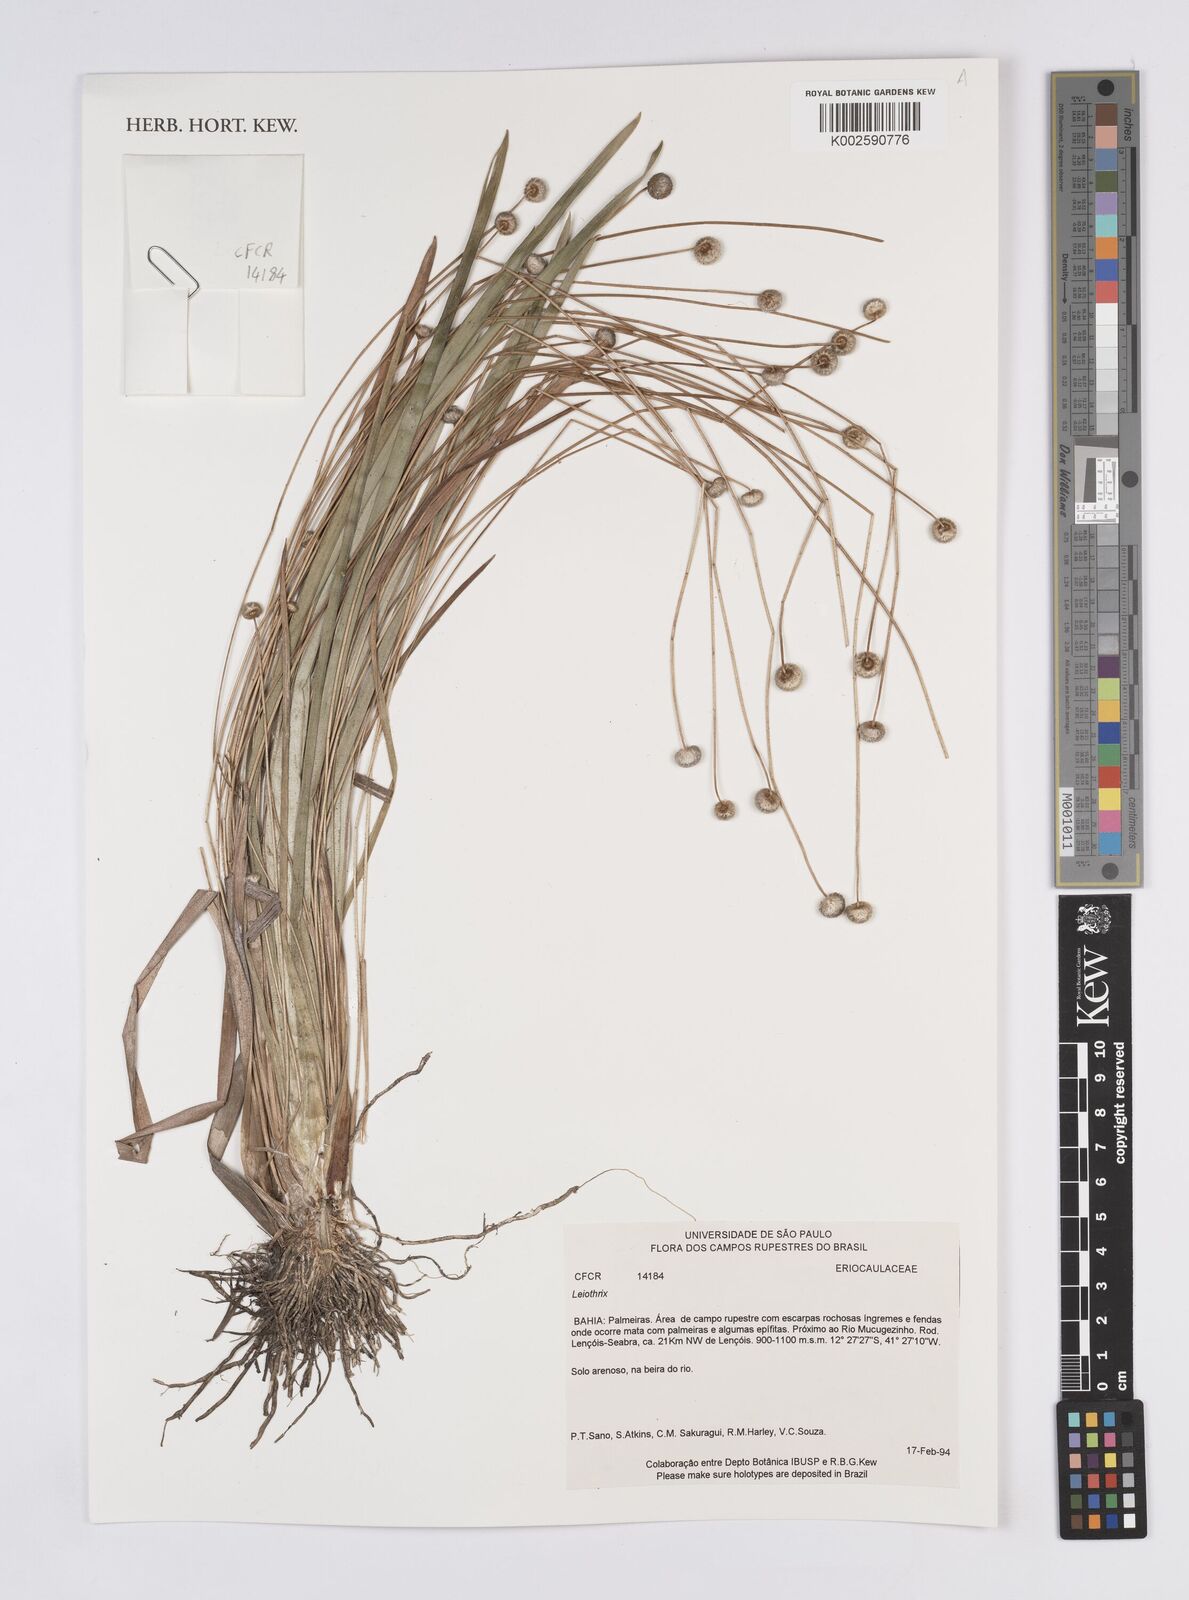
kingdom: Plantae
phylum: Tracheophyta
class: Liliopsida
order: Poales
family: Eriocaulaceae
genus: Leiothrix
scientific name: Leiothrix
